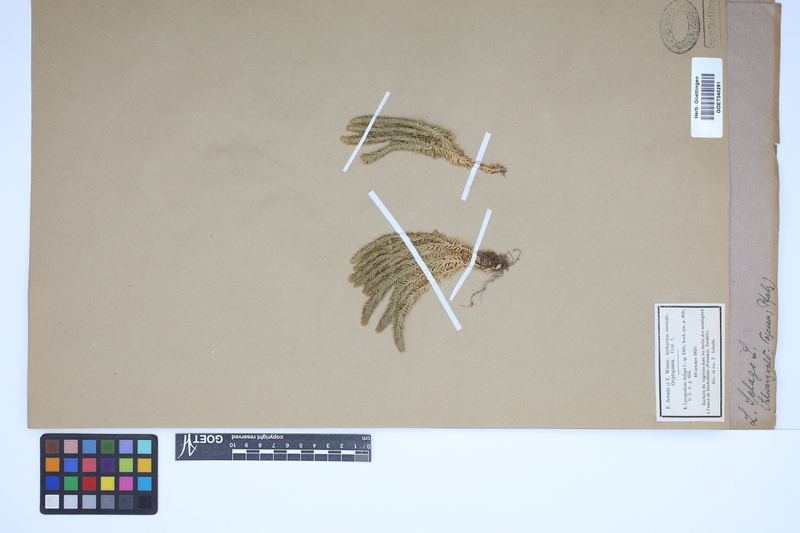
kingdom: Plantae
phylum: Tracheophyta
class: Lycopodiopsida
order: Lycopodiales
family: Lycopodiaceae
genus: Huperzia
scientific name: Huperzia selago
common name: Northern firmoss
